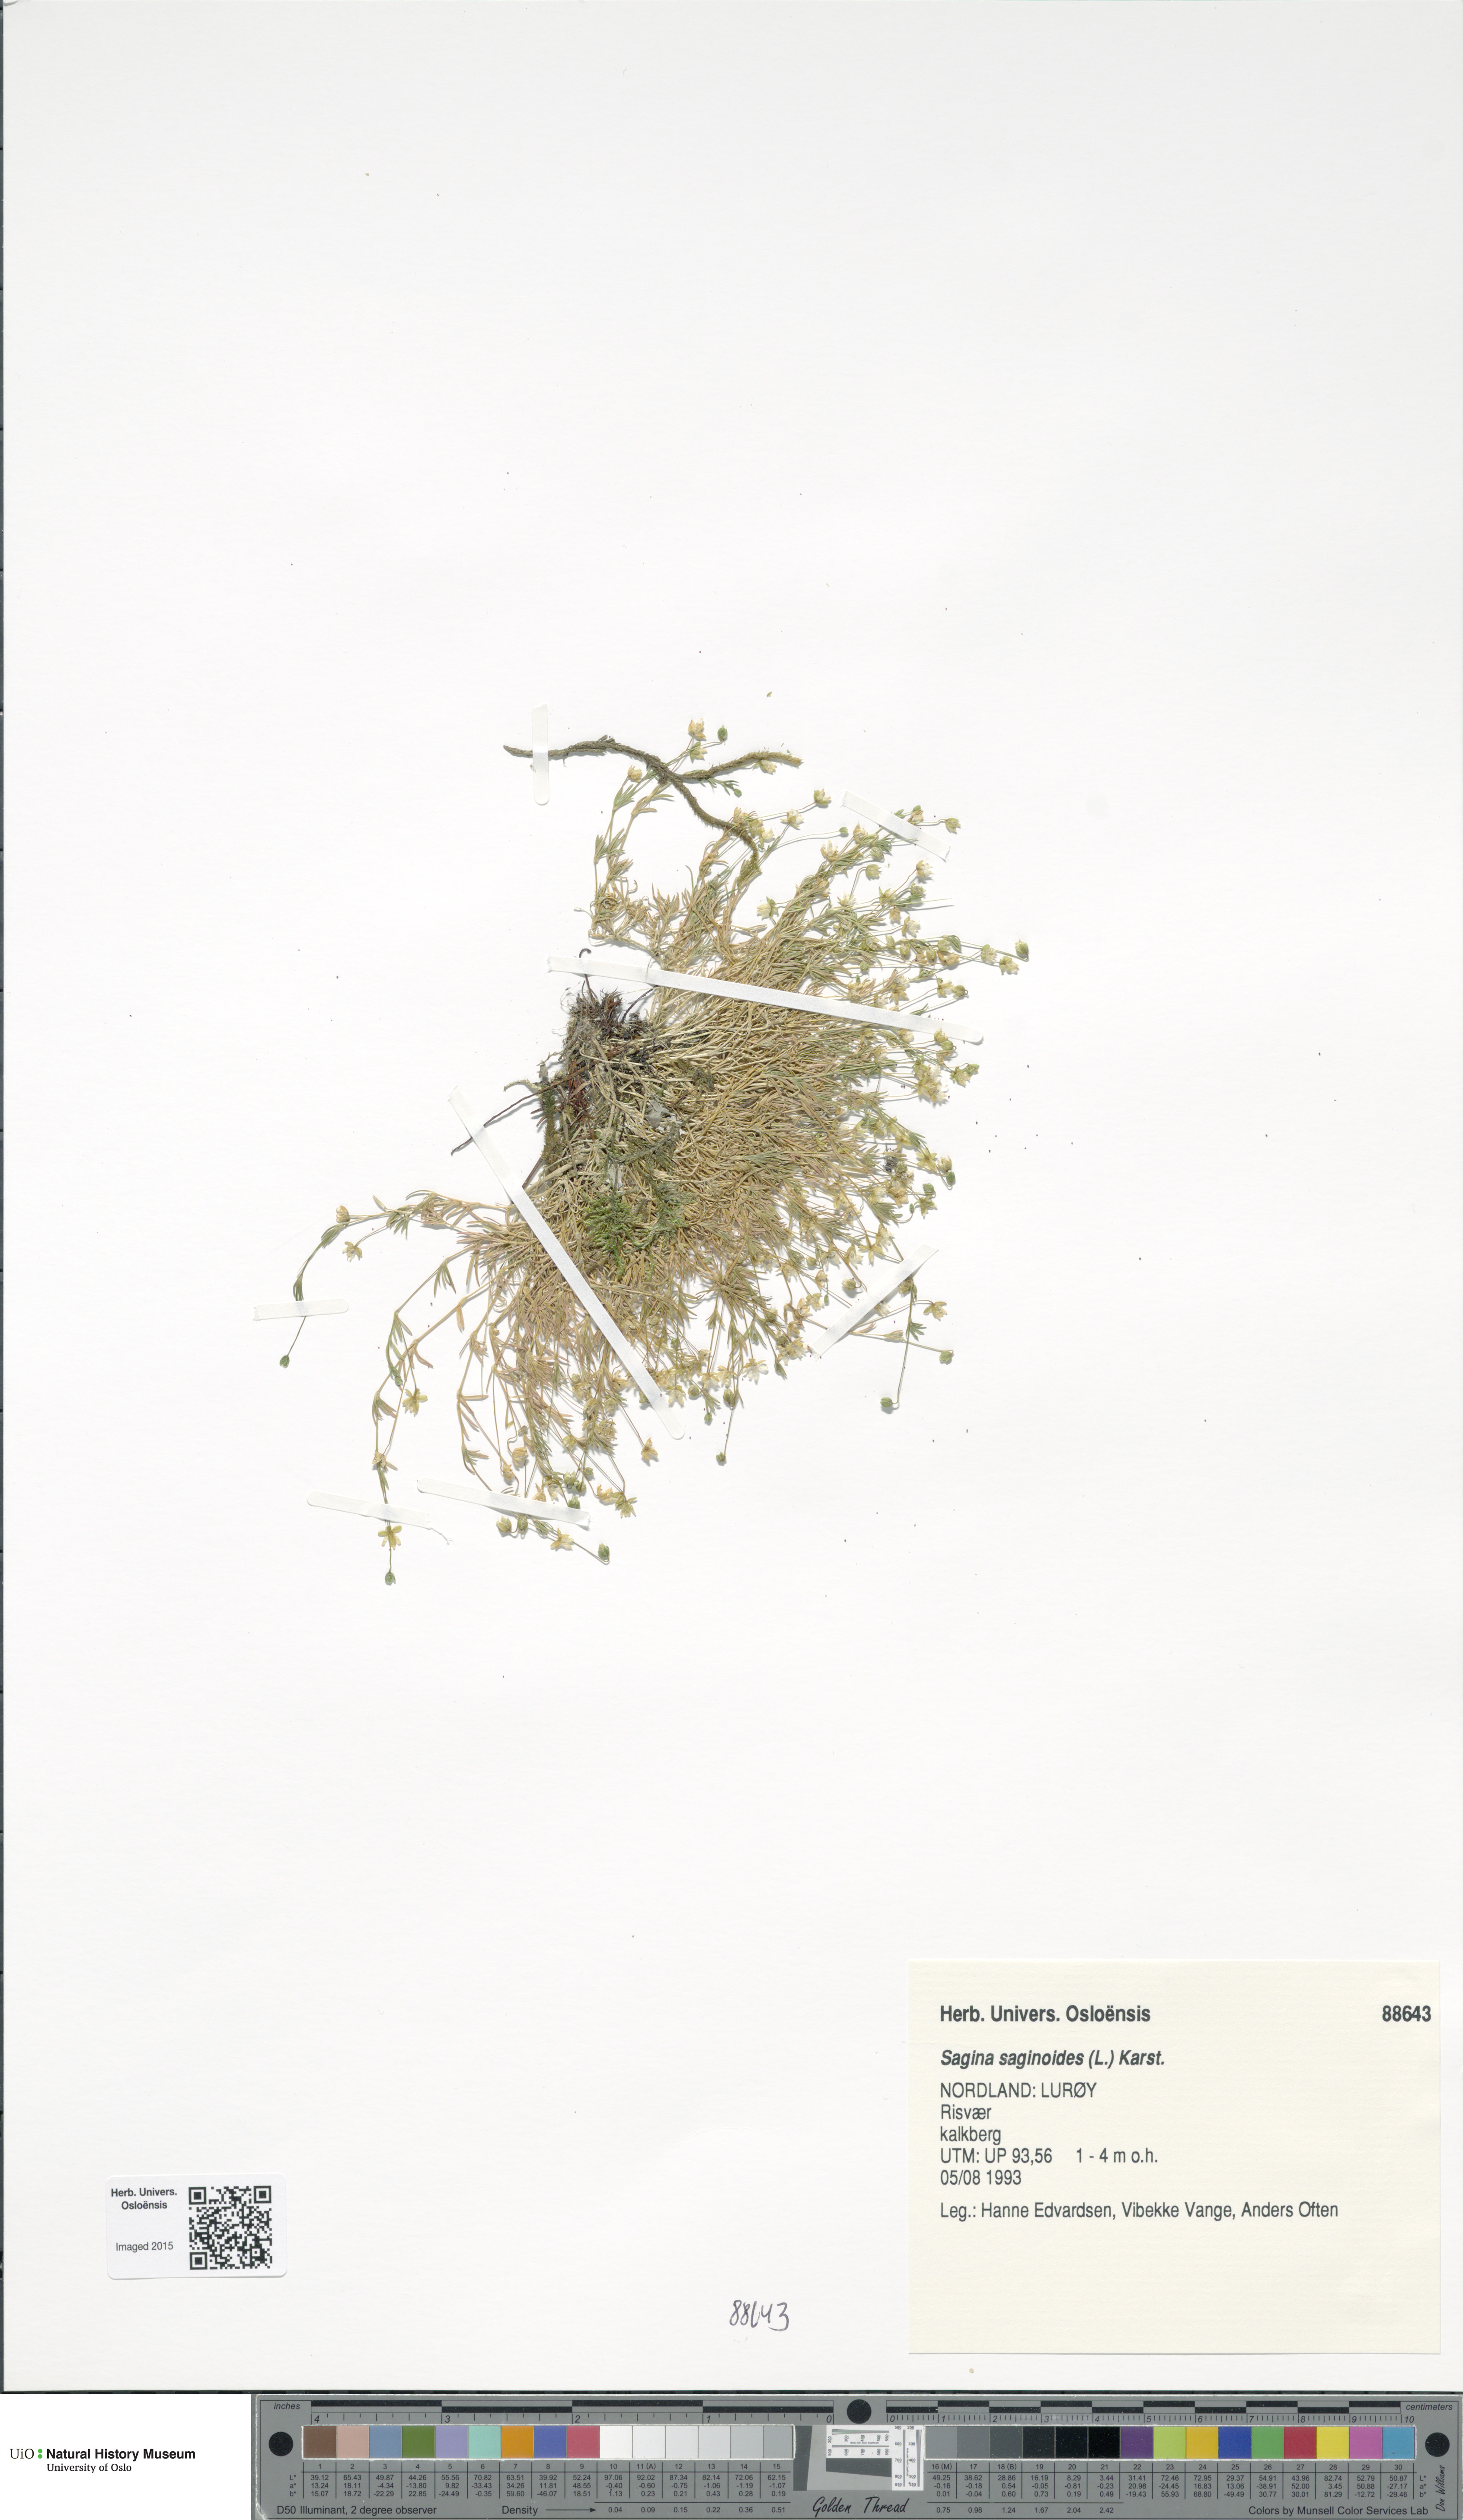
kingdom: Plantae
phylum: Tracheophyta
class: Magnoliopsida
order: Caryophyllales
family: Caryophyllaceae
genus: Sagina
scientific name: Sagina saginoides
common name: Alpine pearlwort
